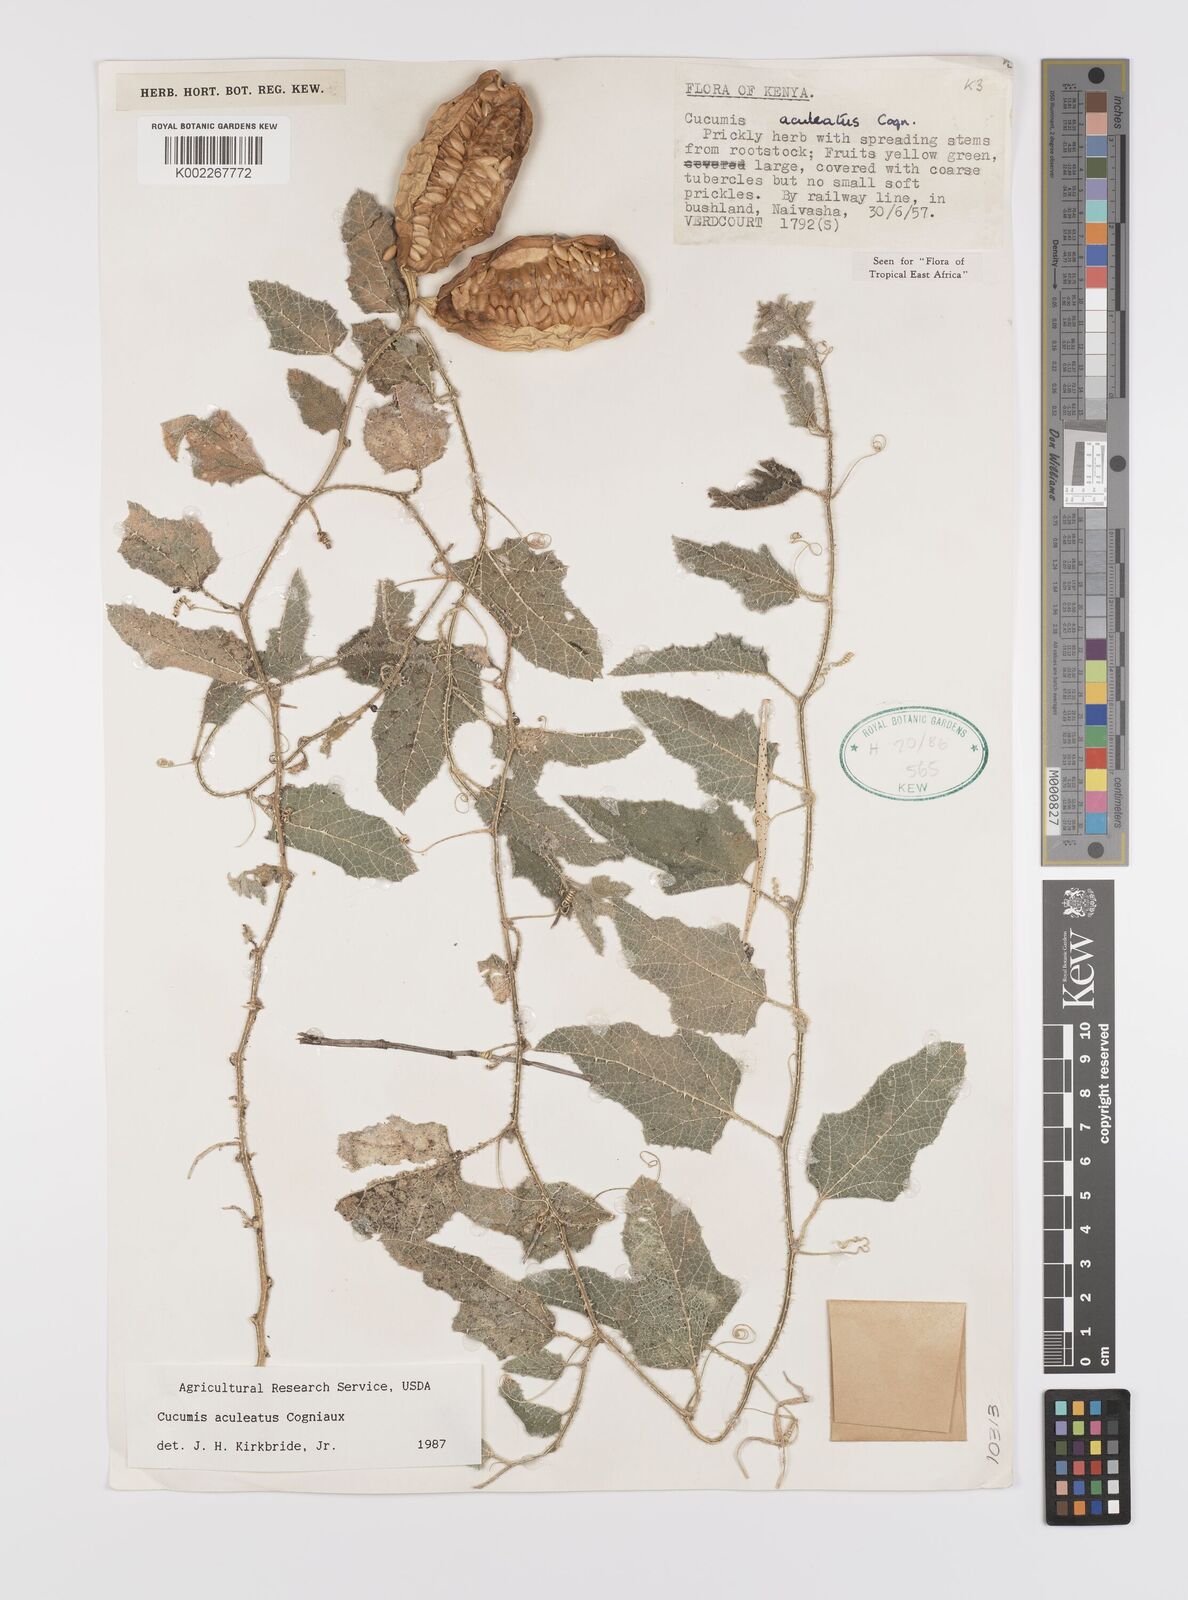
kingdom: Plantae
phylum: Tracheophyta
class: Magnoliopsida
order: Cucurbitales
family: Cucurbitaceae
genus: Cucumis
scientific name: Cucumis aculeatus
